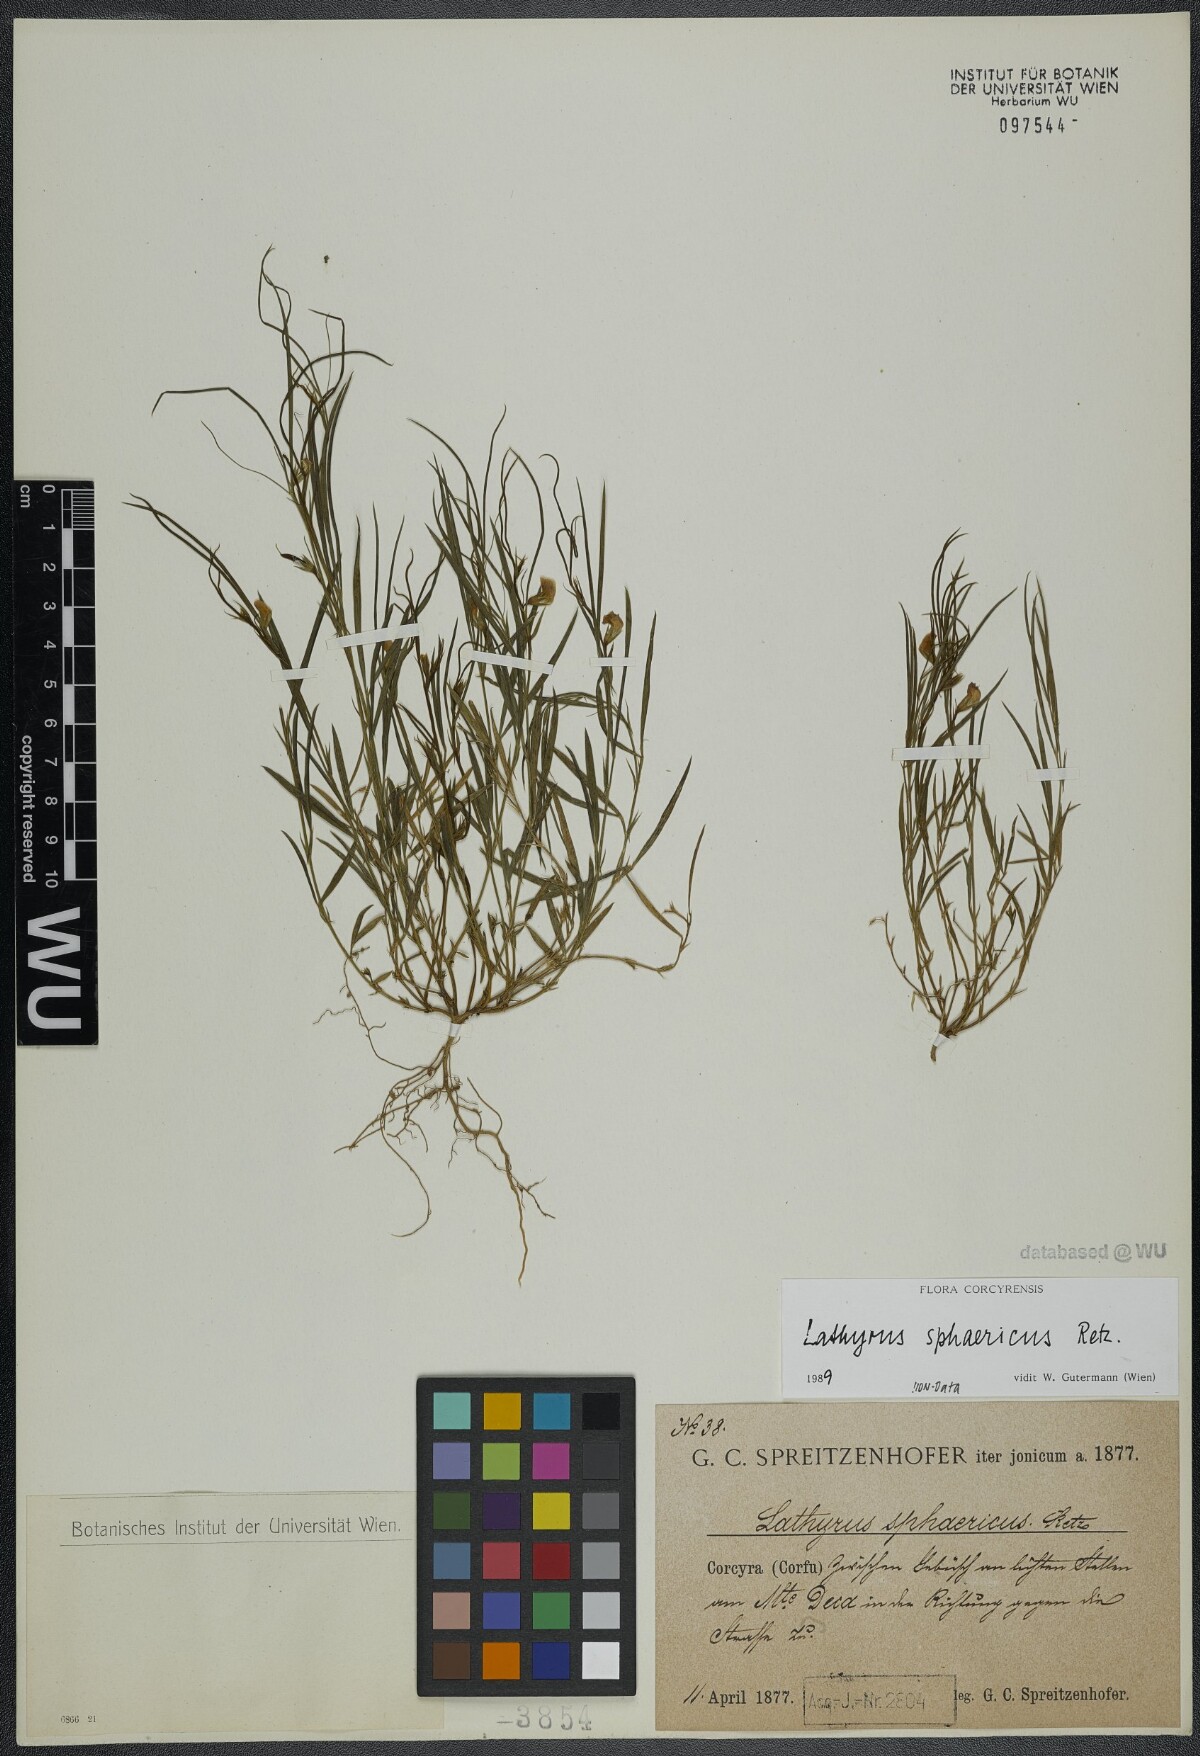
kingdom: Plantae
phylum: Tracheophyta
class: Magnoliopsida
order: Fabales
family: Fabaceae
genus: Lathyrus
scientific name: Lathyrus sphaericus
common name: Grass pea
